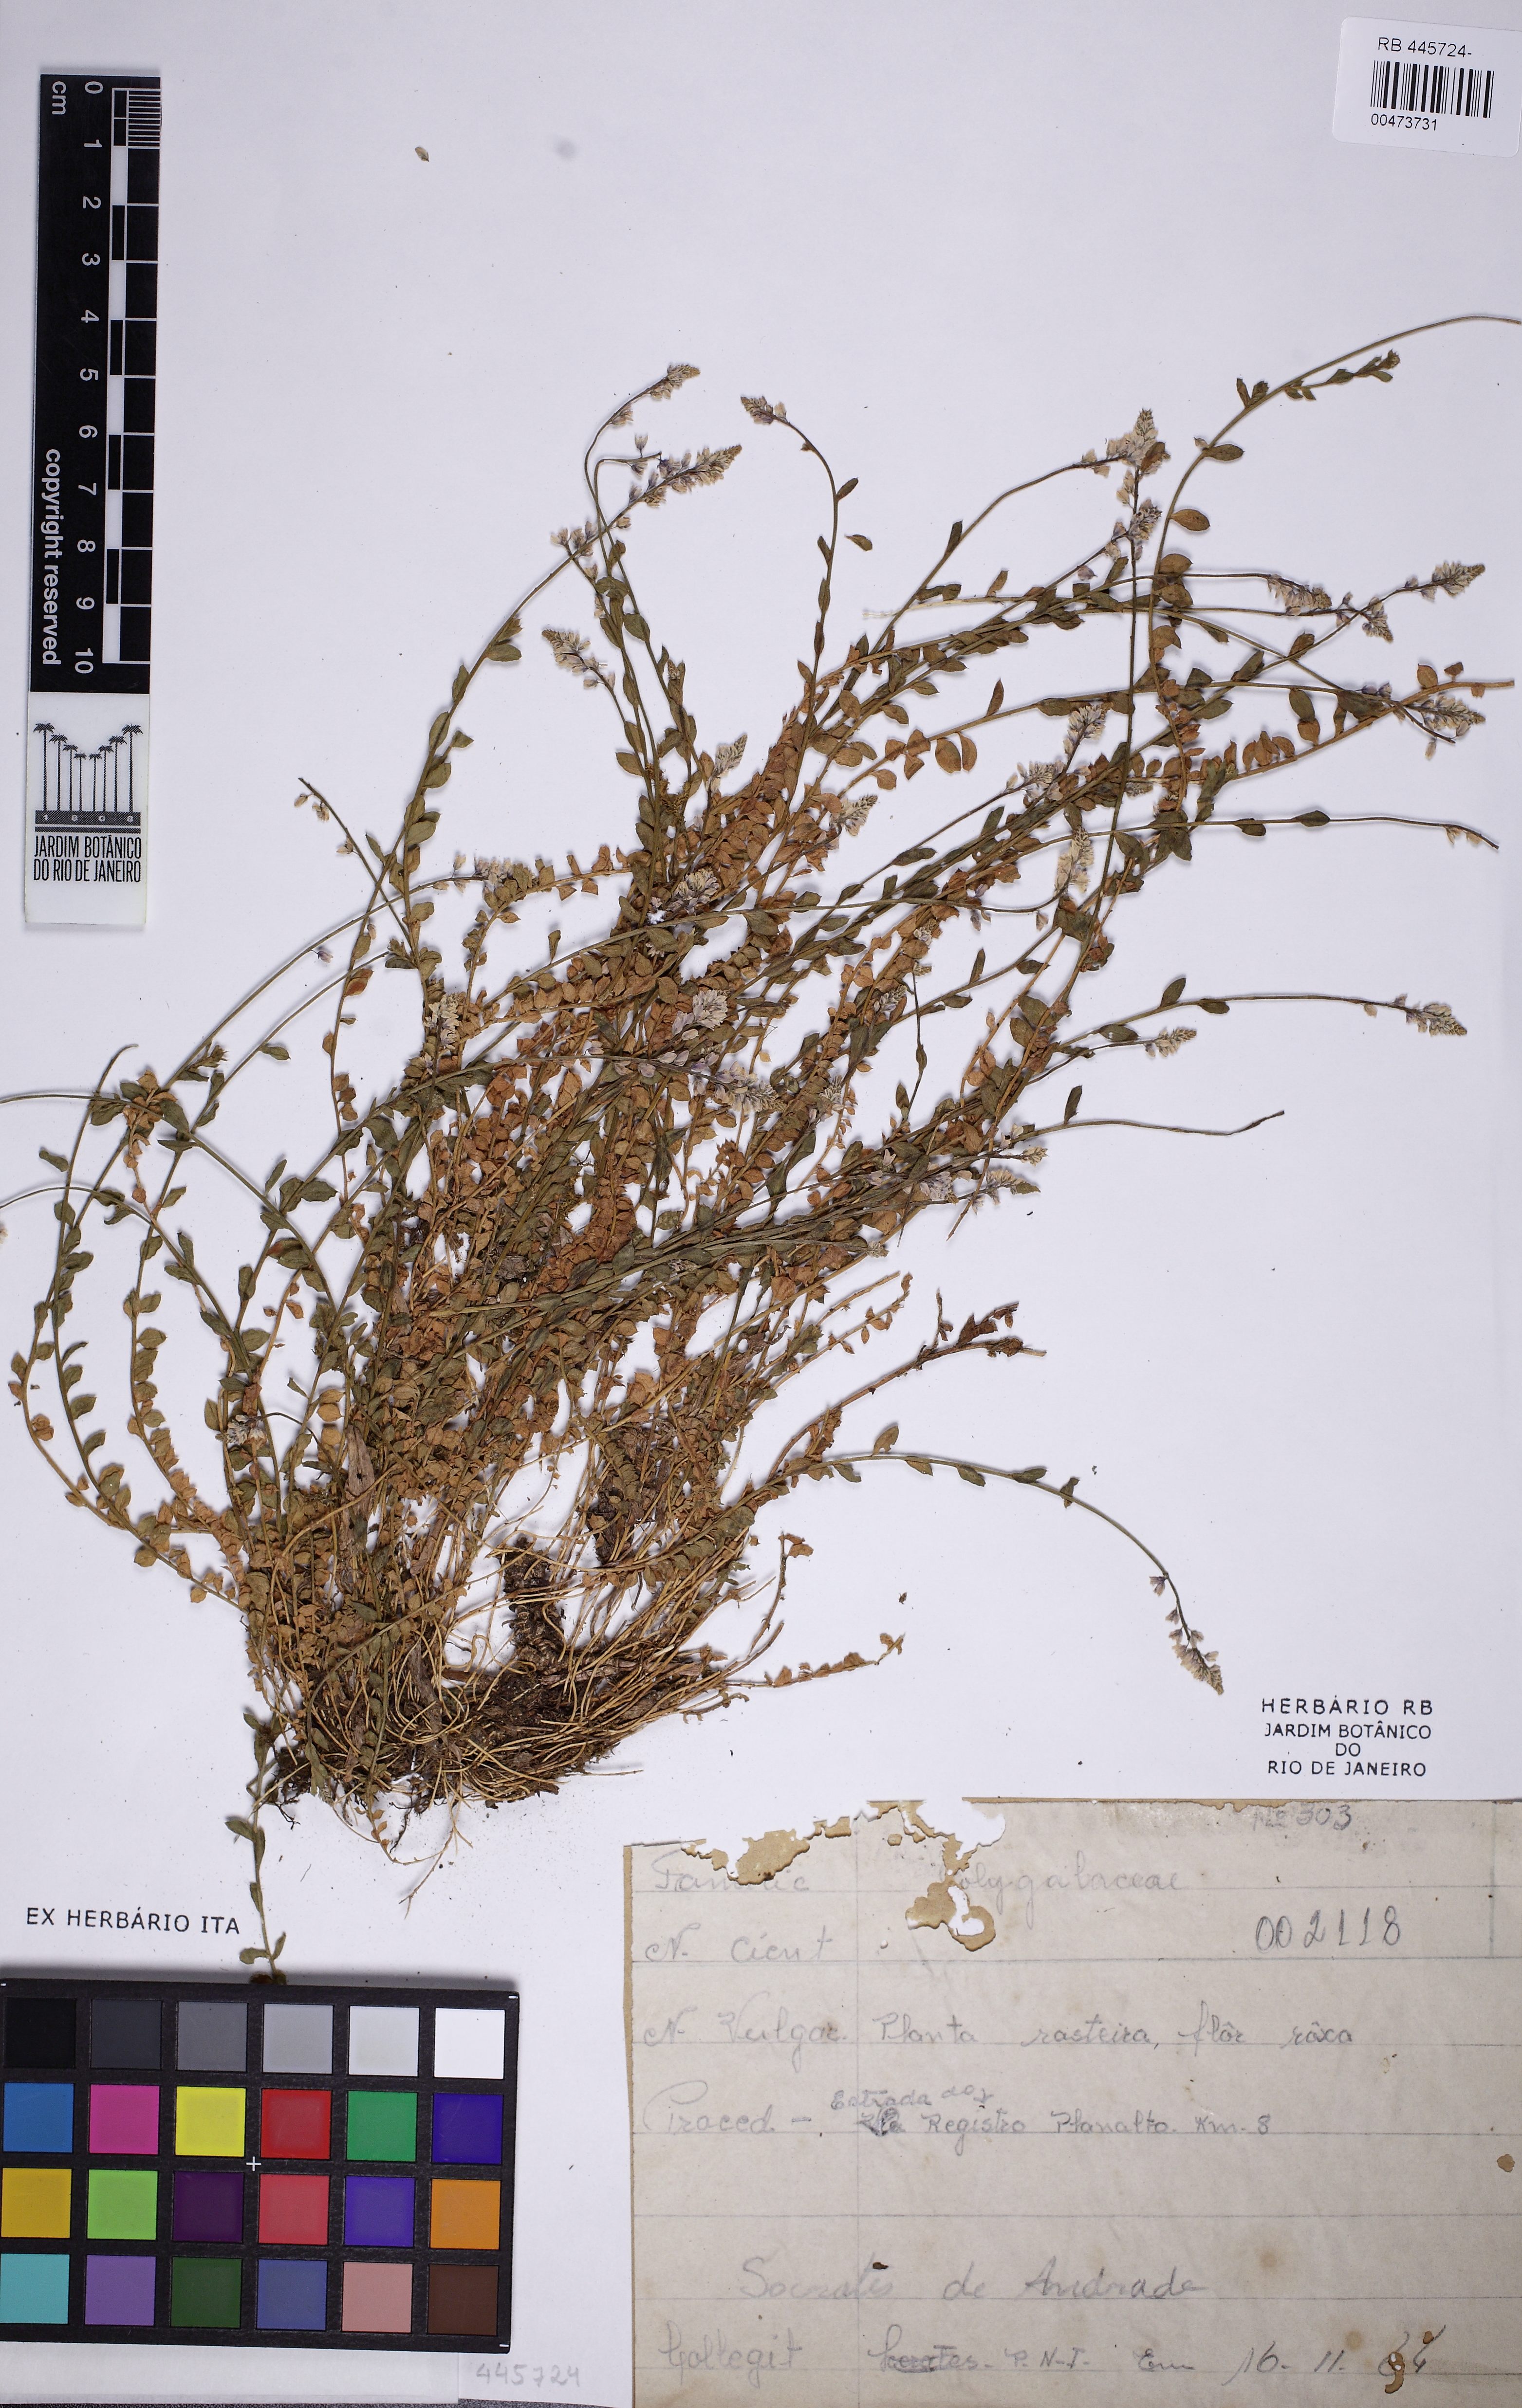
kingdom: Plantae
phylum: Tracheophyta
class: Magnoliopsida
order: Fabales
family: Polygalaceae
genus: Polygala
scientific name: Polygala campestris
